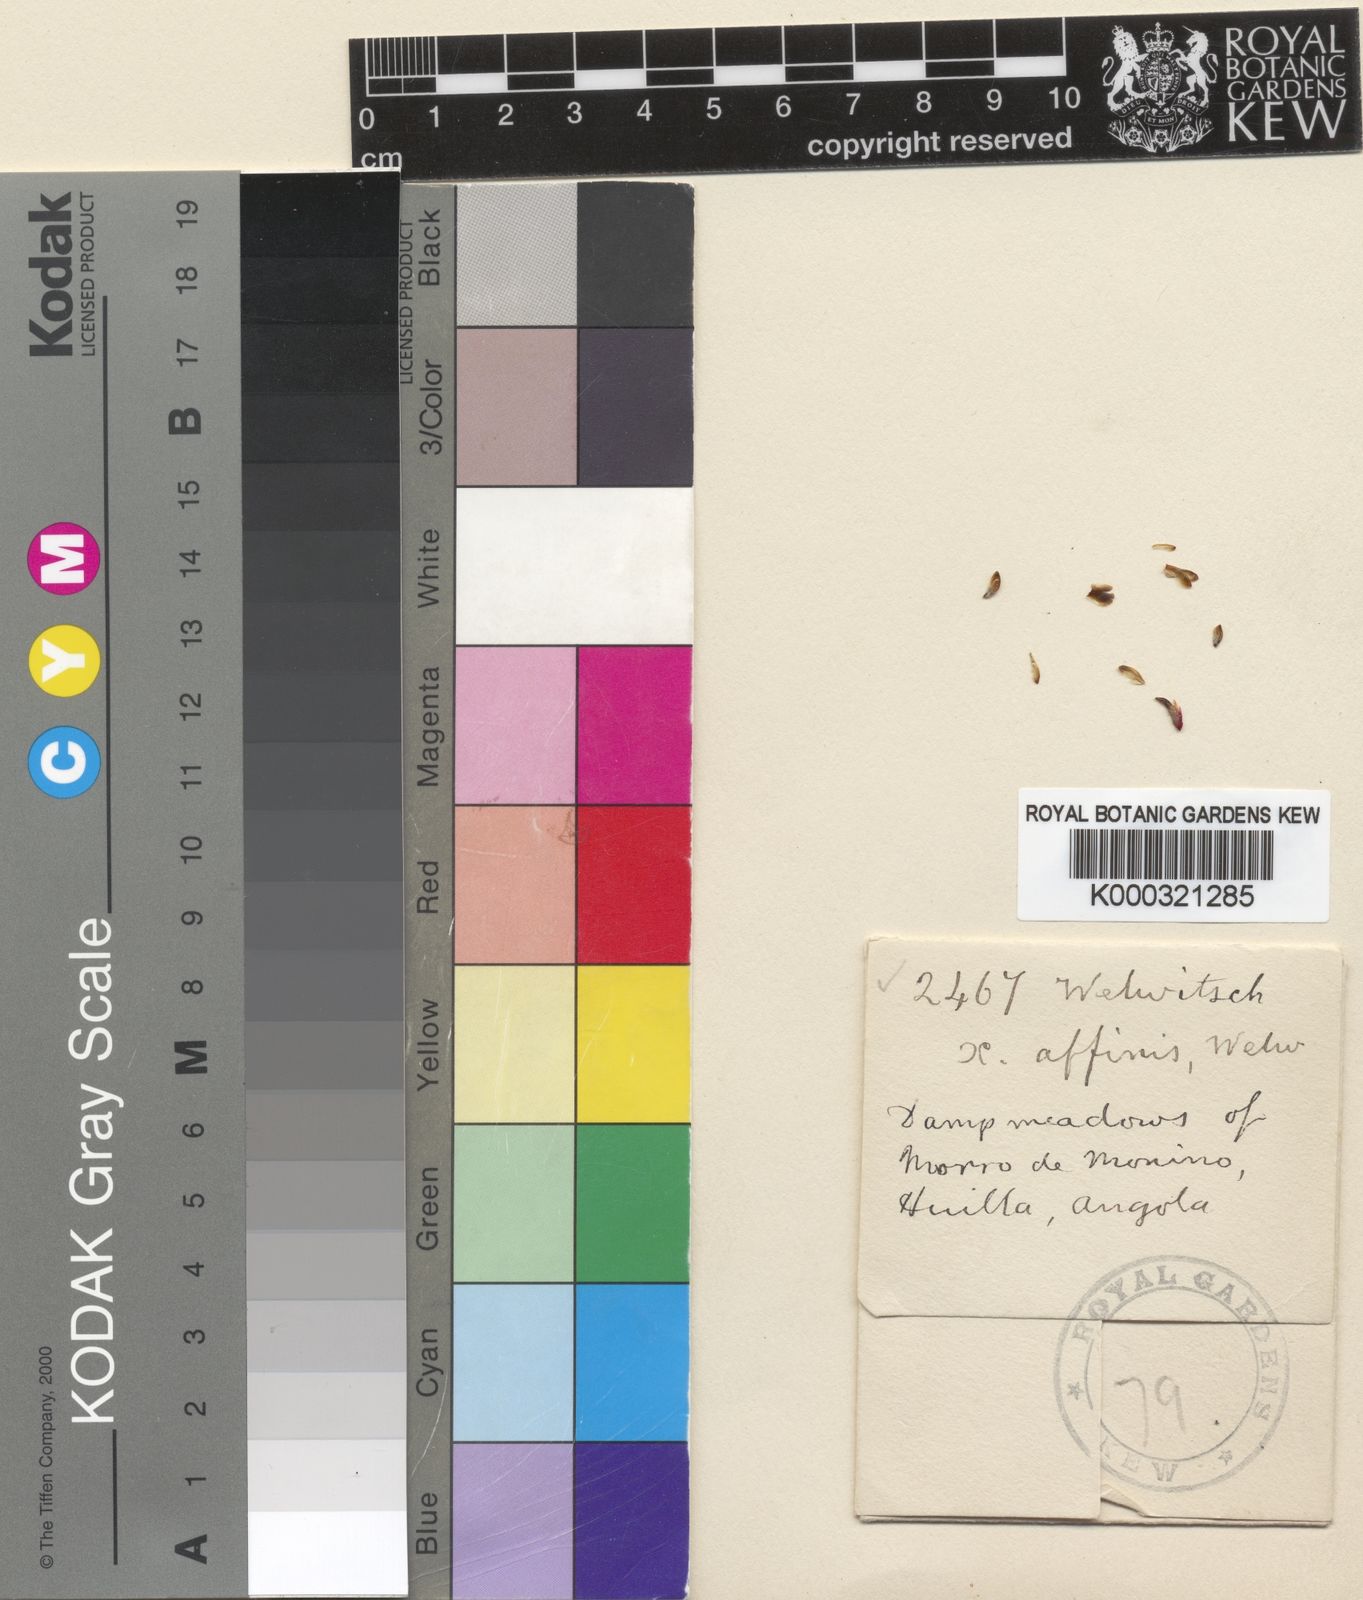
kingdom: Plantae
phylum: Tracheophyta
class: Liliopsida
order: Poales
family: Xyridaceae
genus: Xyris
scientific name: Xyris affinis
